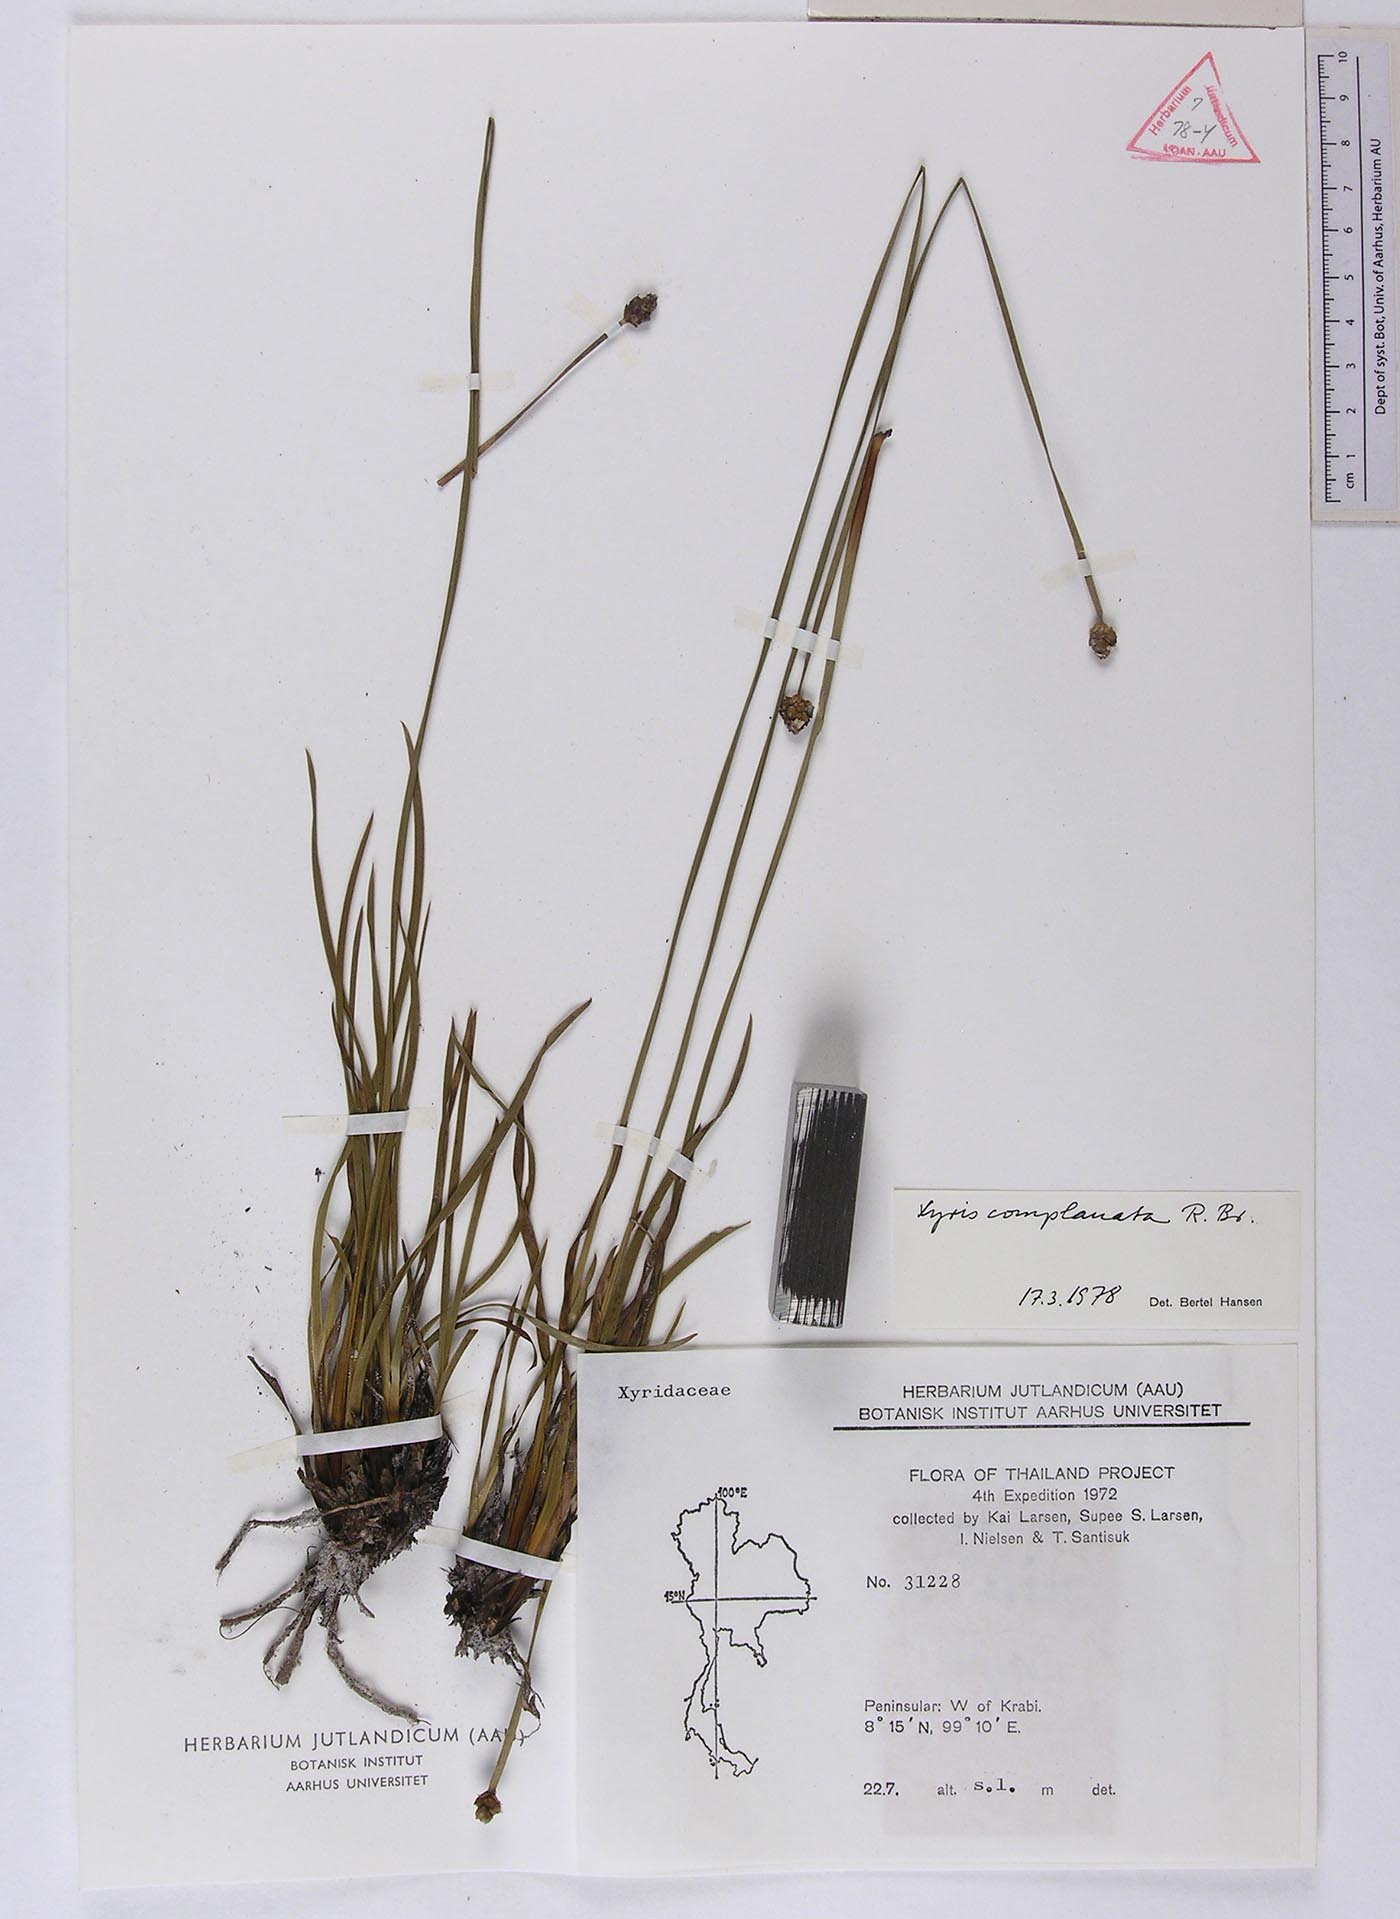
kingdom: Plantae
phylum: Tracheophyta
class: Liliopsida
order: Poales
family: Xyridaceae
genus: Xyris
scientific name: Xyris complanata
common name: Hawai'i yelloweyed grass
